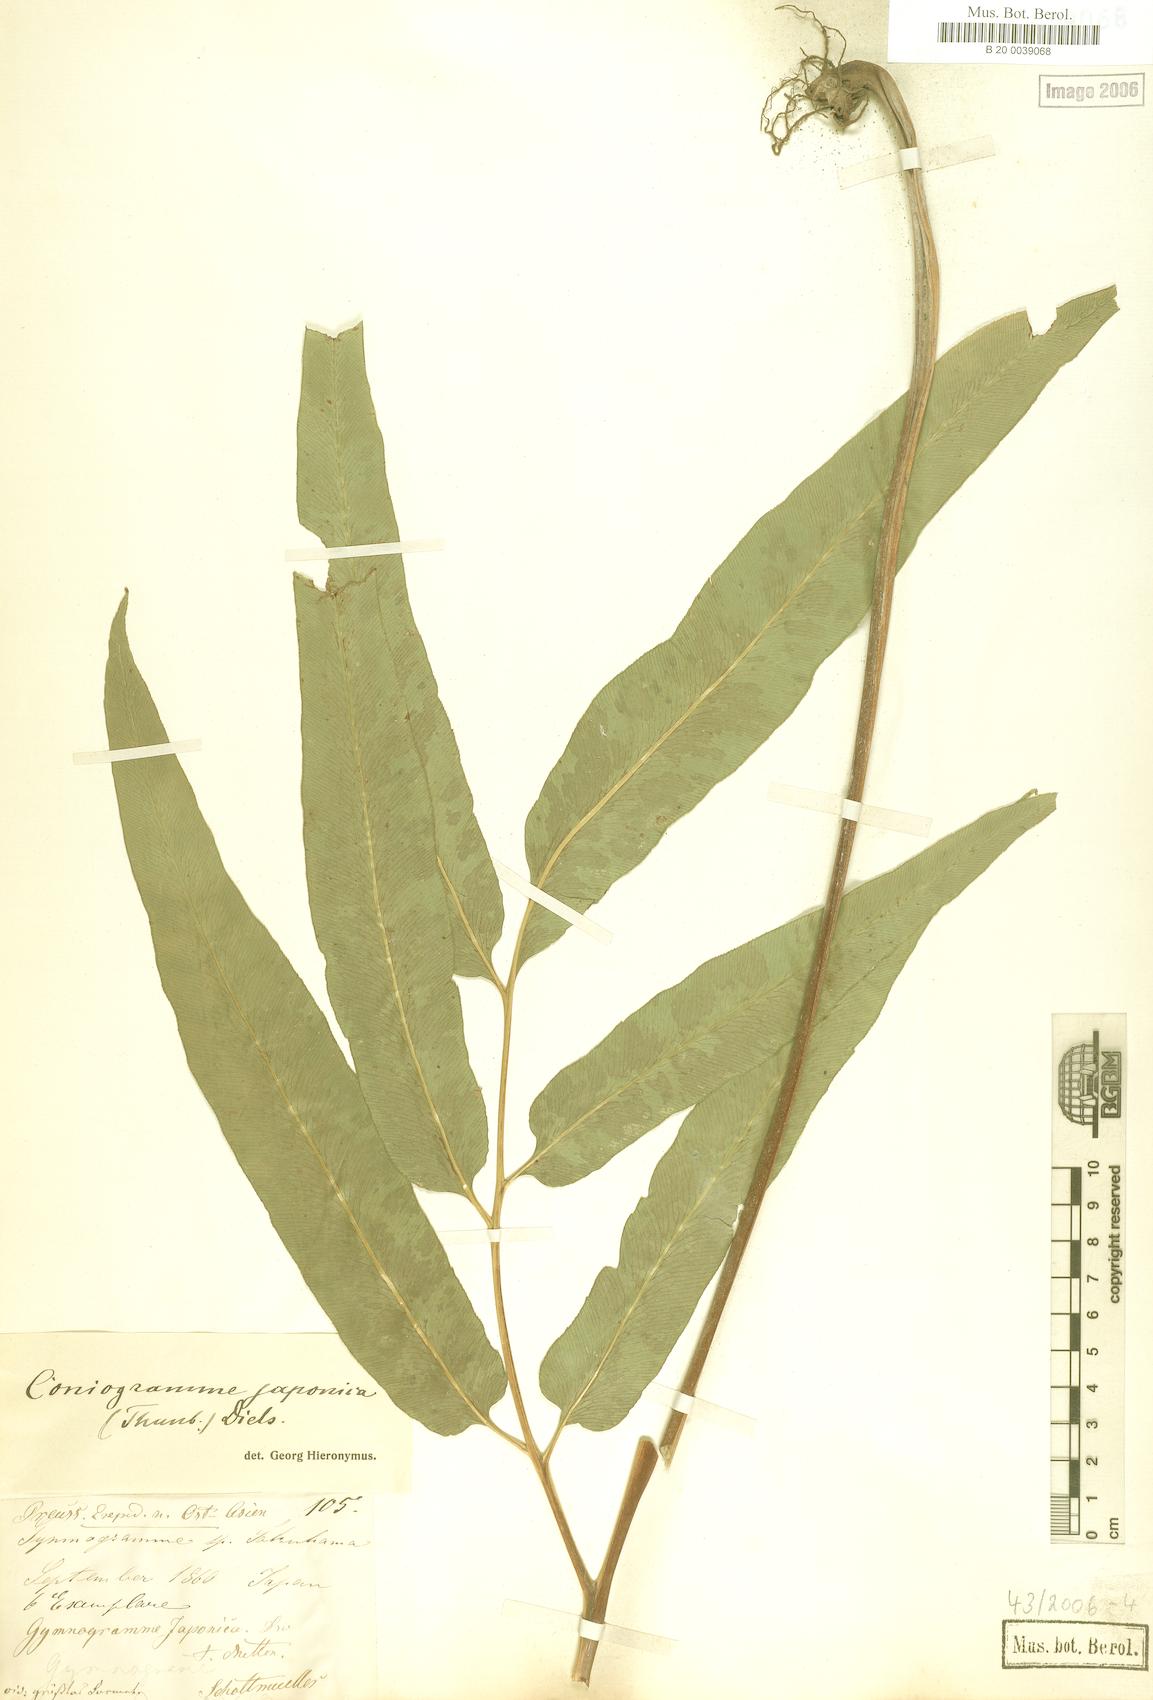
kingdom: Plantae
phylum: Tracheophyta
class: Polypodiopsida
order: Polypodiales
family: Pteridaceae
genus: Coniogramme
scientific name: Coniogramme japonica
